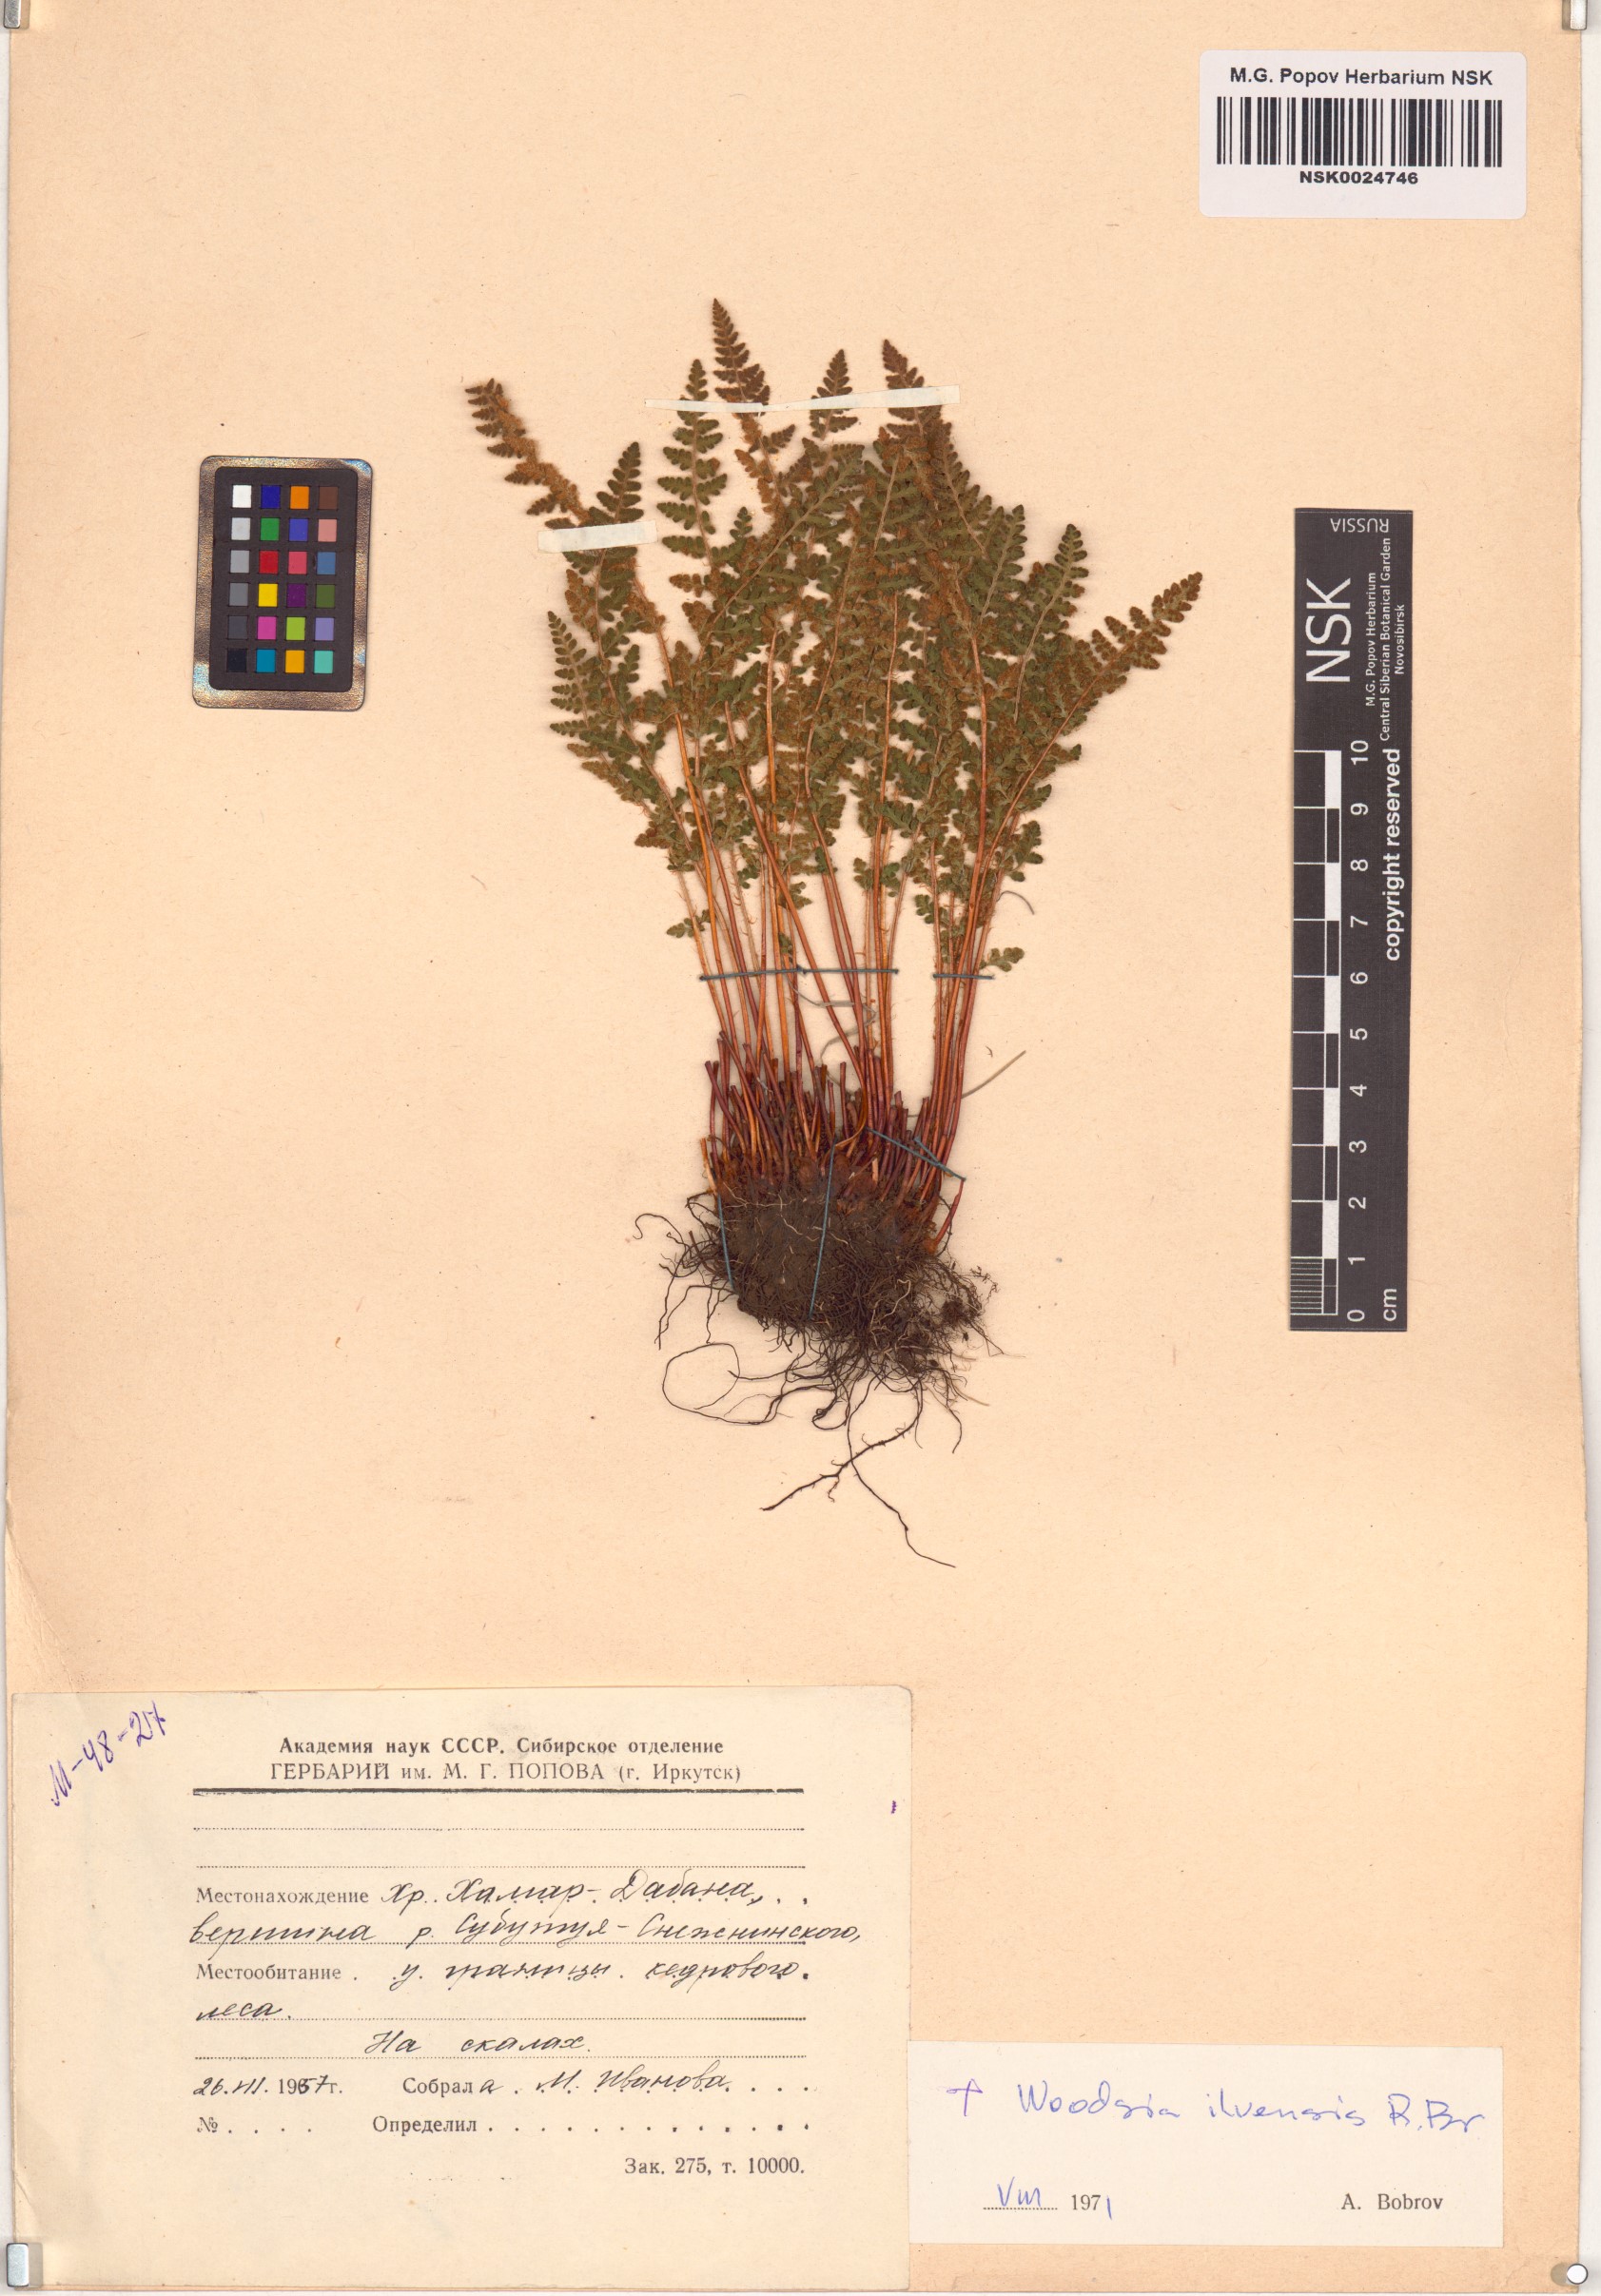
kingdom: Plantae
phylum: Tracheophyta
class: Polypodiopsida
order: Polypodiales
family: Woodsiaceae
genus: Woodsia
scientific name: Woodsia ilvensis
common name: Fragrant woodsia
